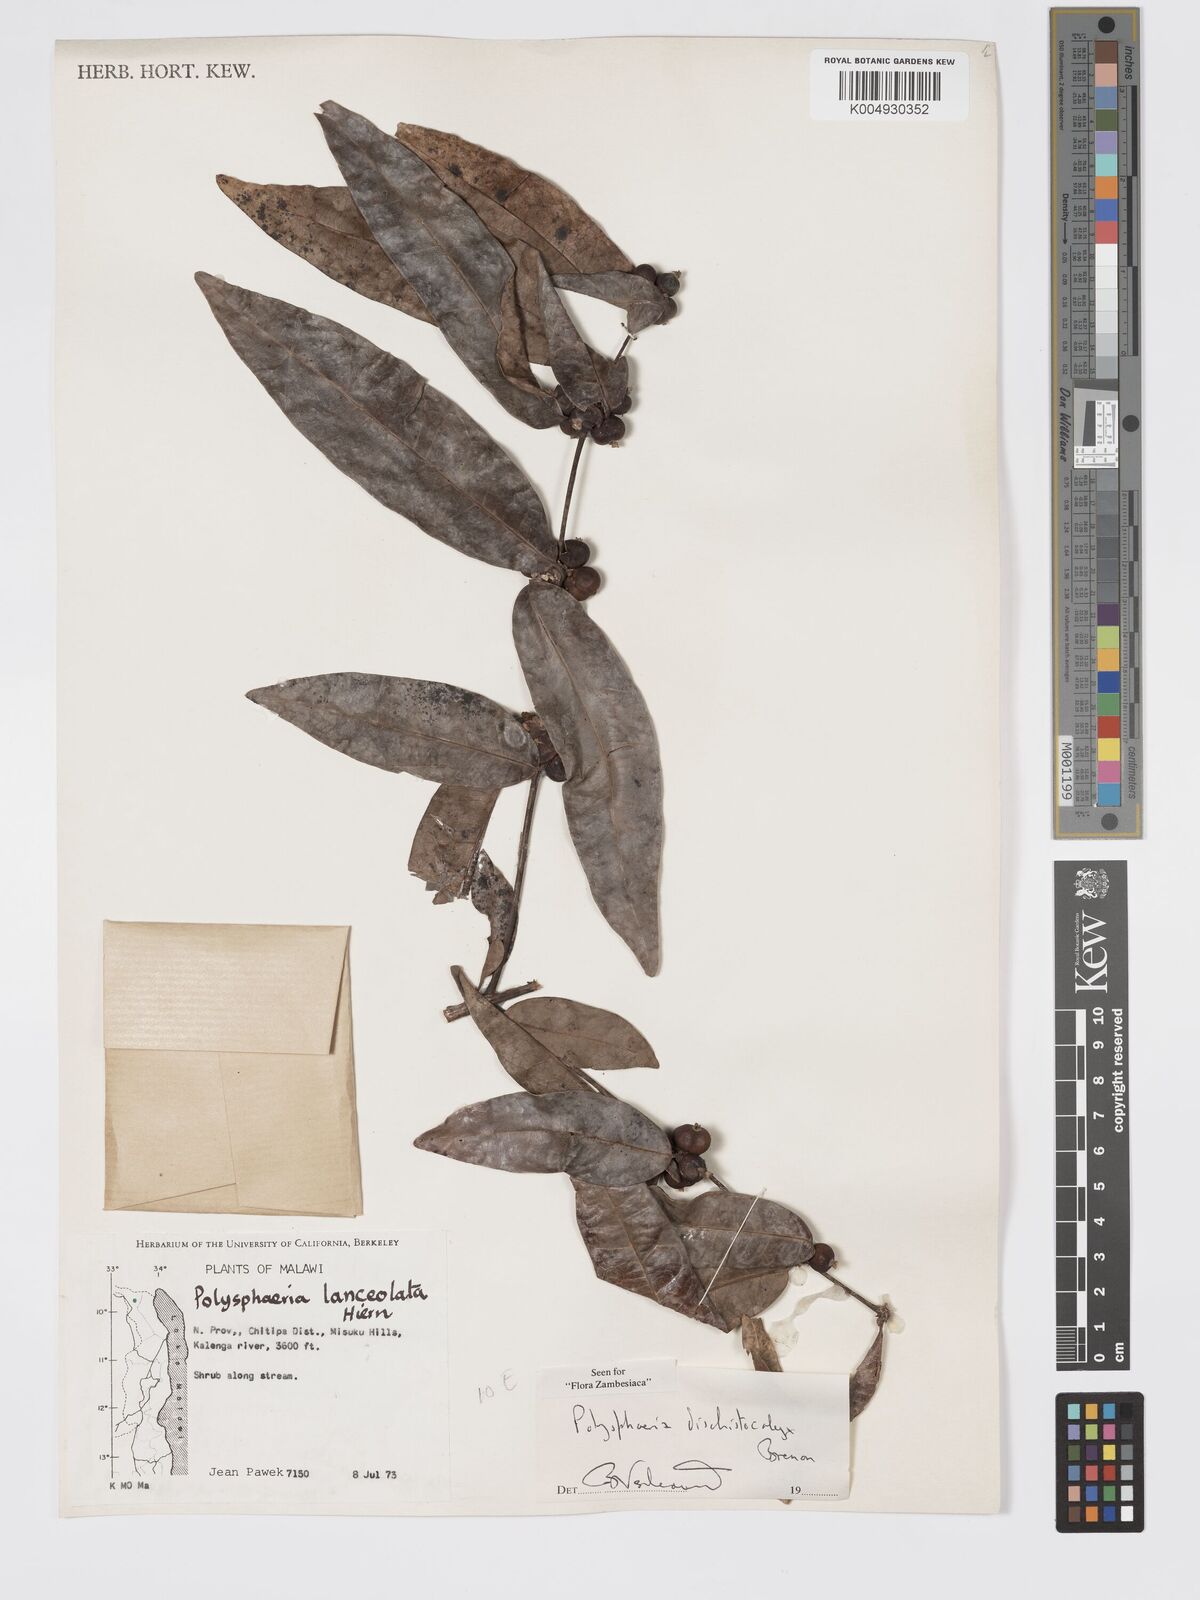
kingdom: Plantae
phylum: Tracheophyta
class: Magnoliopsida
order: Gentianales
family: Rubiaceae
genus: Polysphaeria
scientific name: Polysphaeria dischistocalyx
